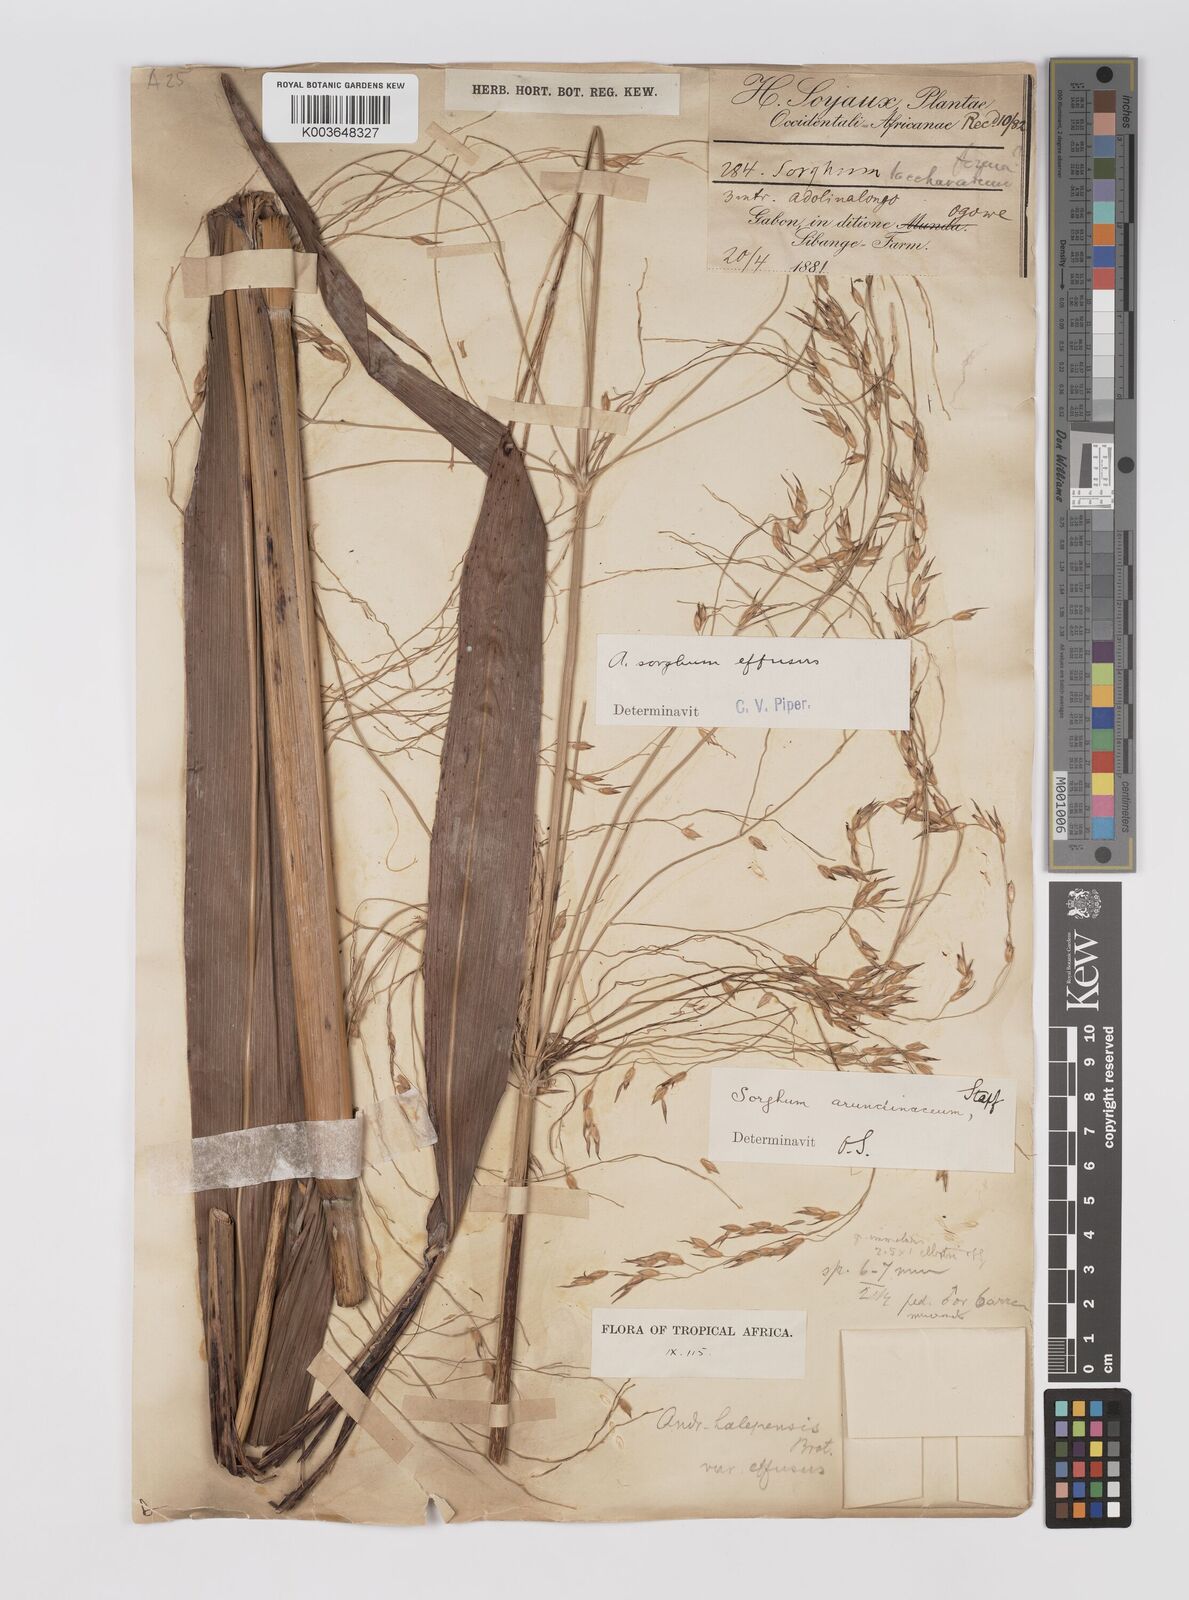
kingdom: Plantae
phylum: Tracheophyta
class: Liliopsida
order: Poales
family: Poaceae
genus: Sorghum
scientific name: Sorghum arundinaceum
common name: Sorghum
